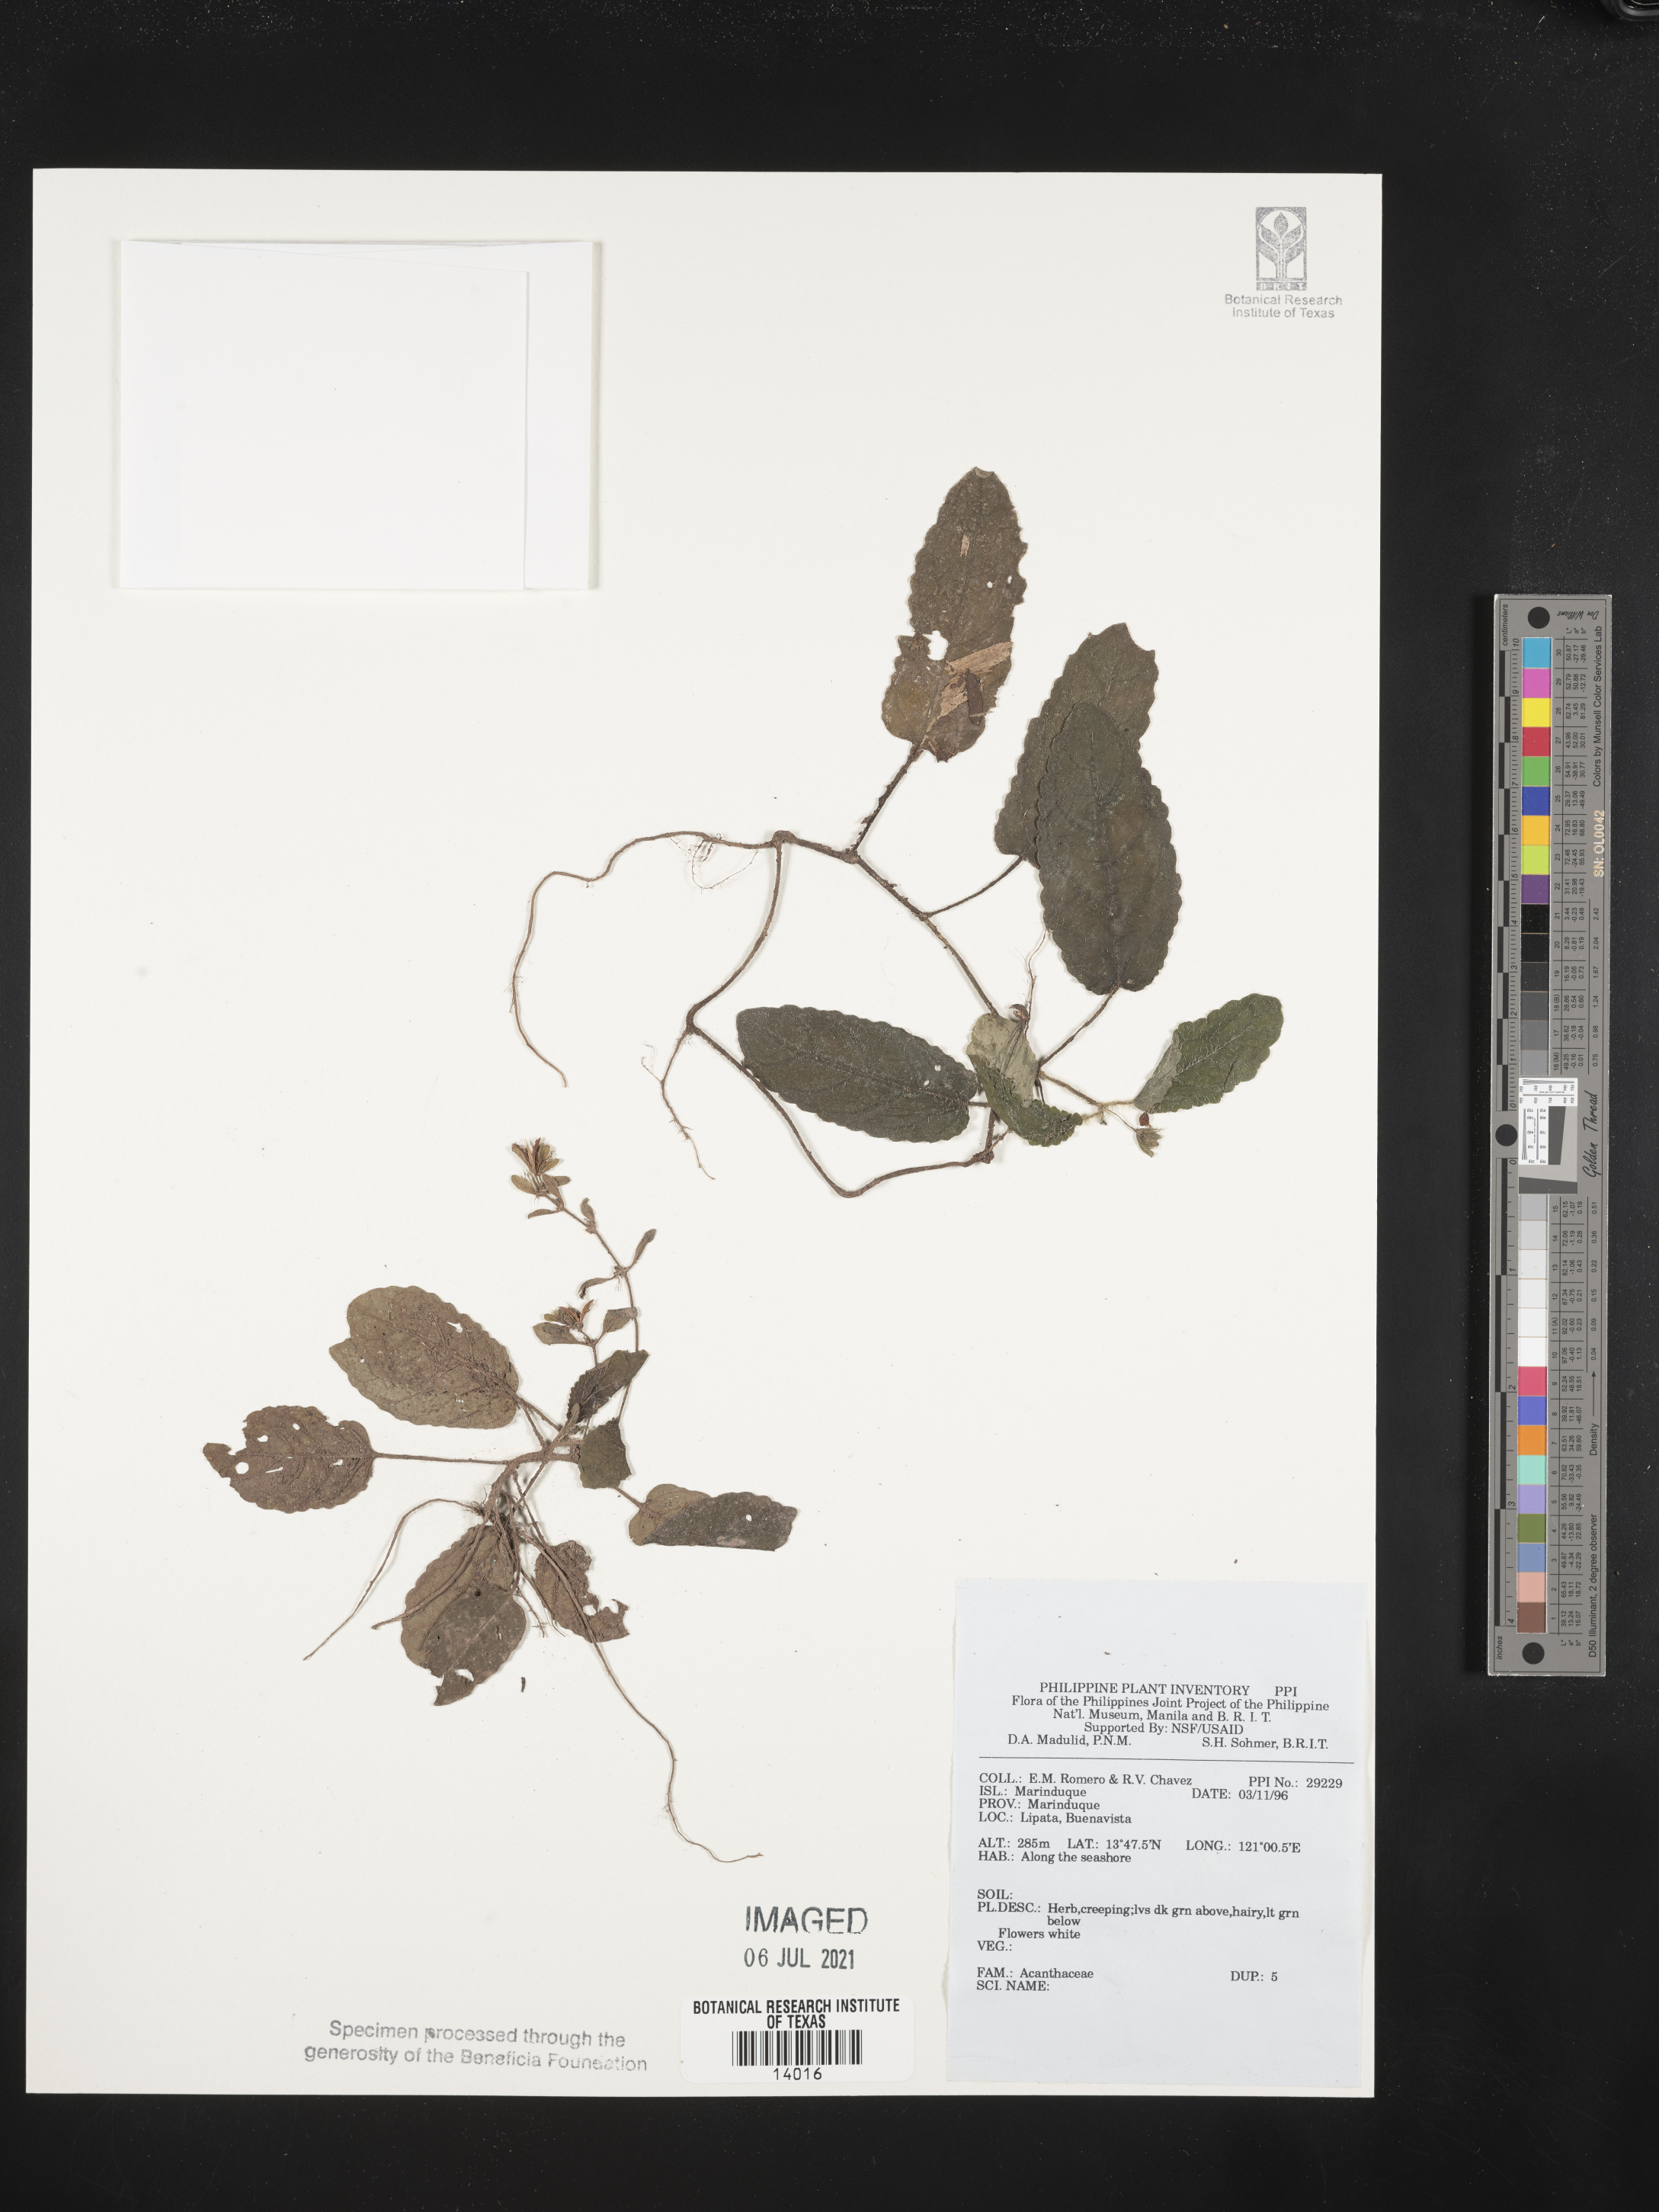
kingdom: Plantae
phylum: Tracheophyta
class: Magnoliopsida
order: Lamiales
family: Acanthaceae
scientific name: Acanthaceae
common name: Acanthaceae
